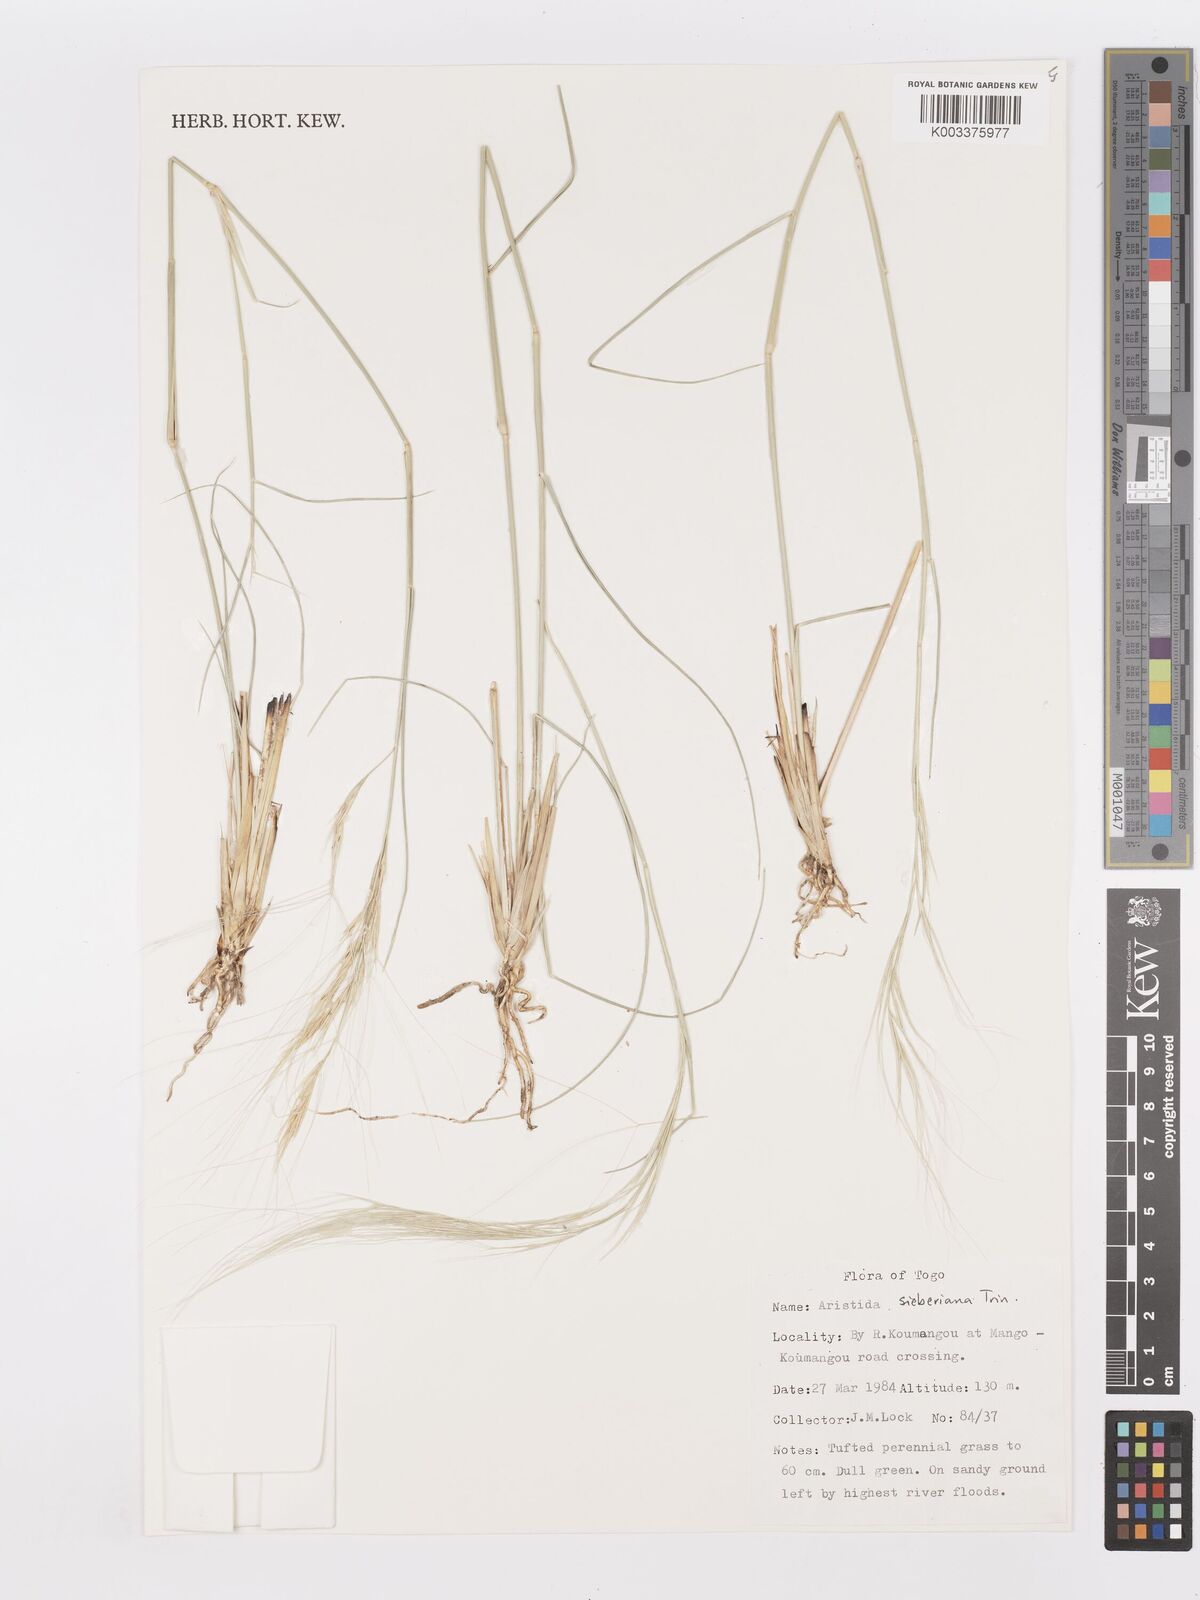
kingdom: Plantae
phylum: Tracheophyta
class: Liliopsida
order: Poales
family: Poaceae
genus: Aristida
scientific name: Aristida sieberiana
